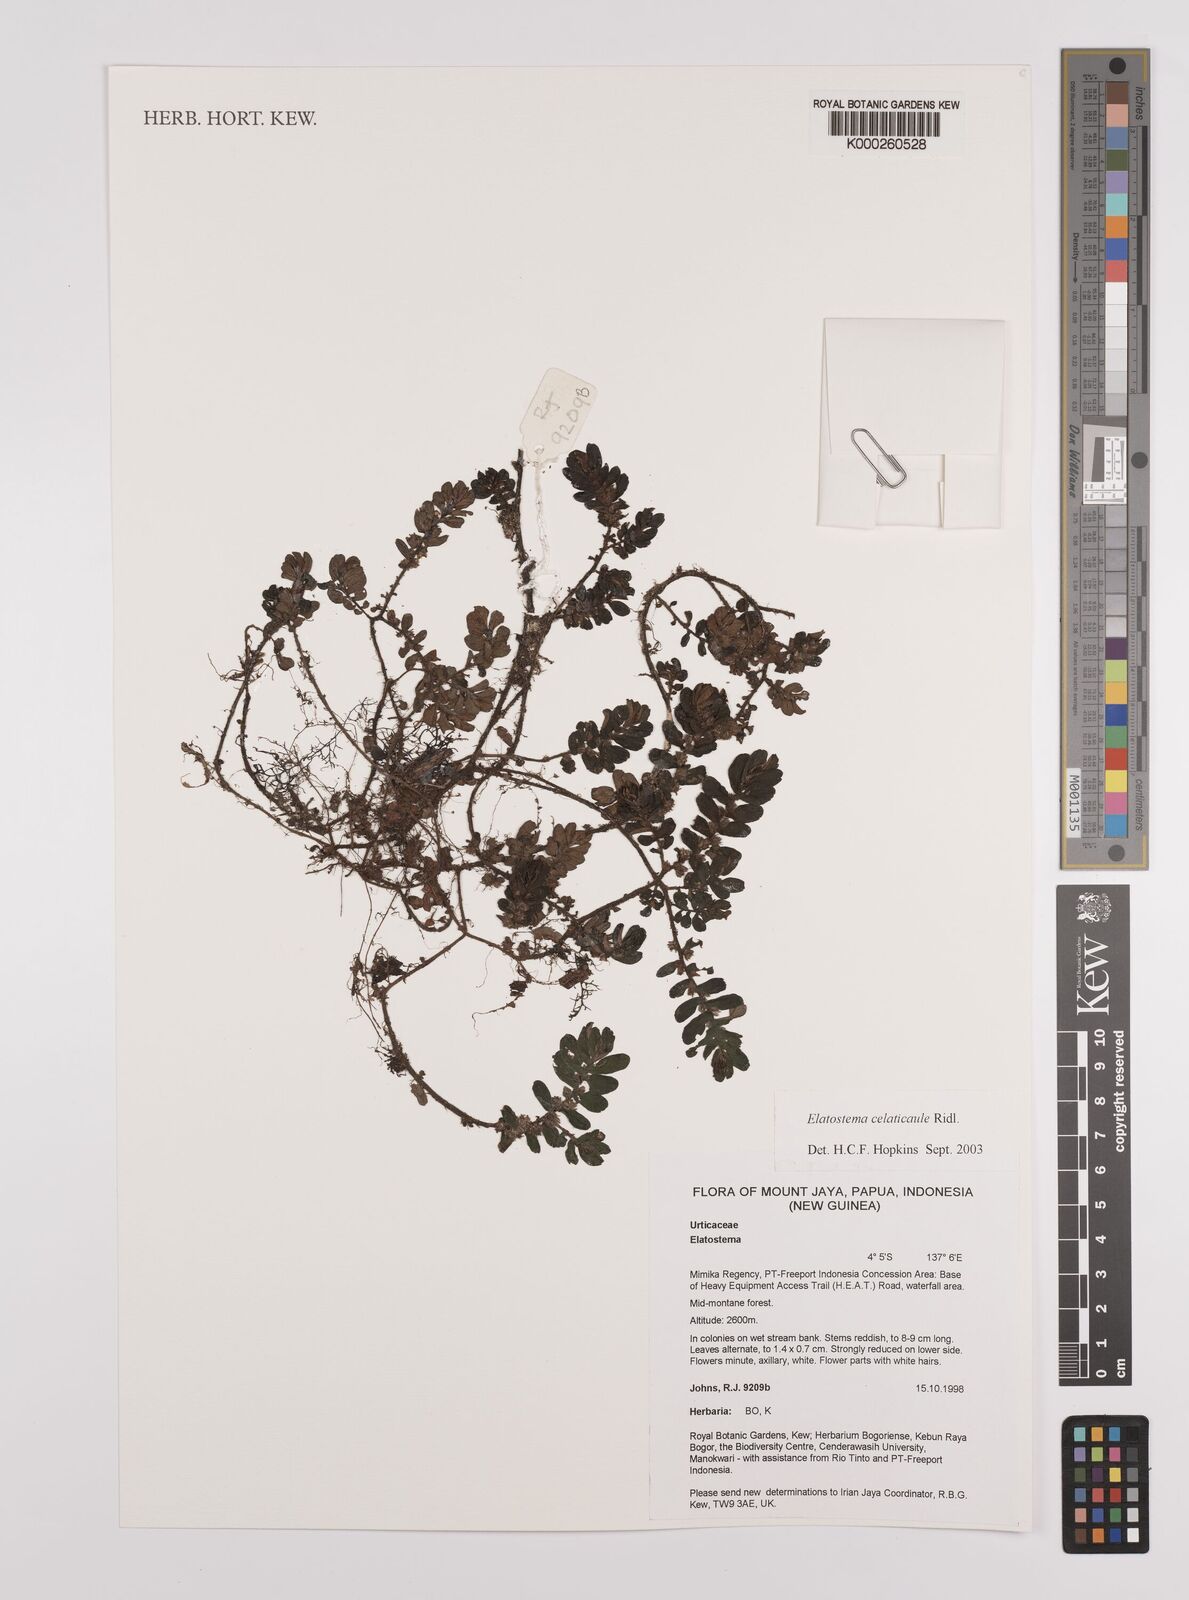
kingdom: Plantae
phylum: Tracheophyta
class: Magnoliopsida
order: Rosales
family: Urticaceae
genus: Elatostema
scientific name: Elatostema celaticaule
